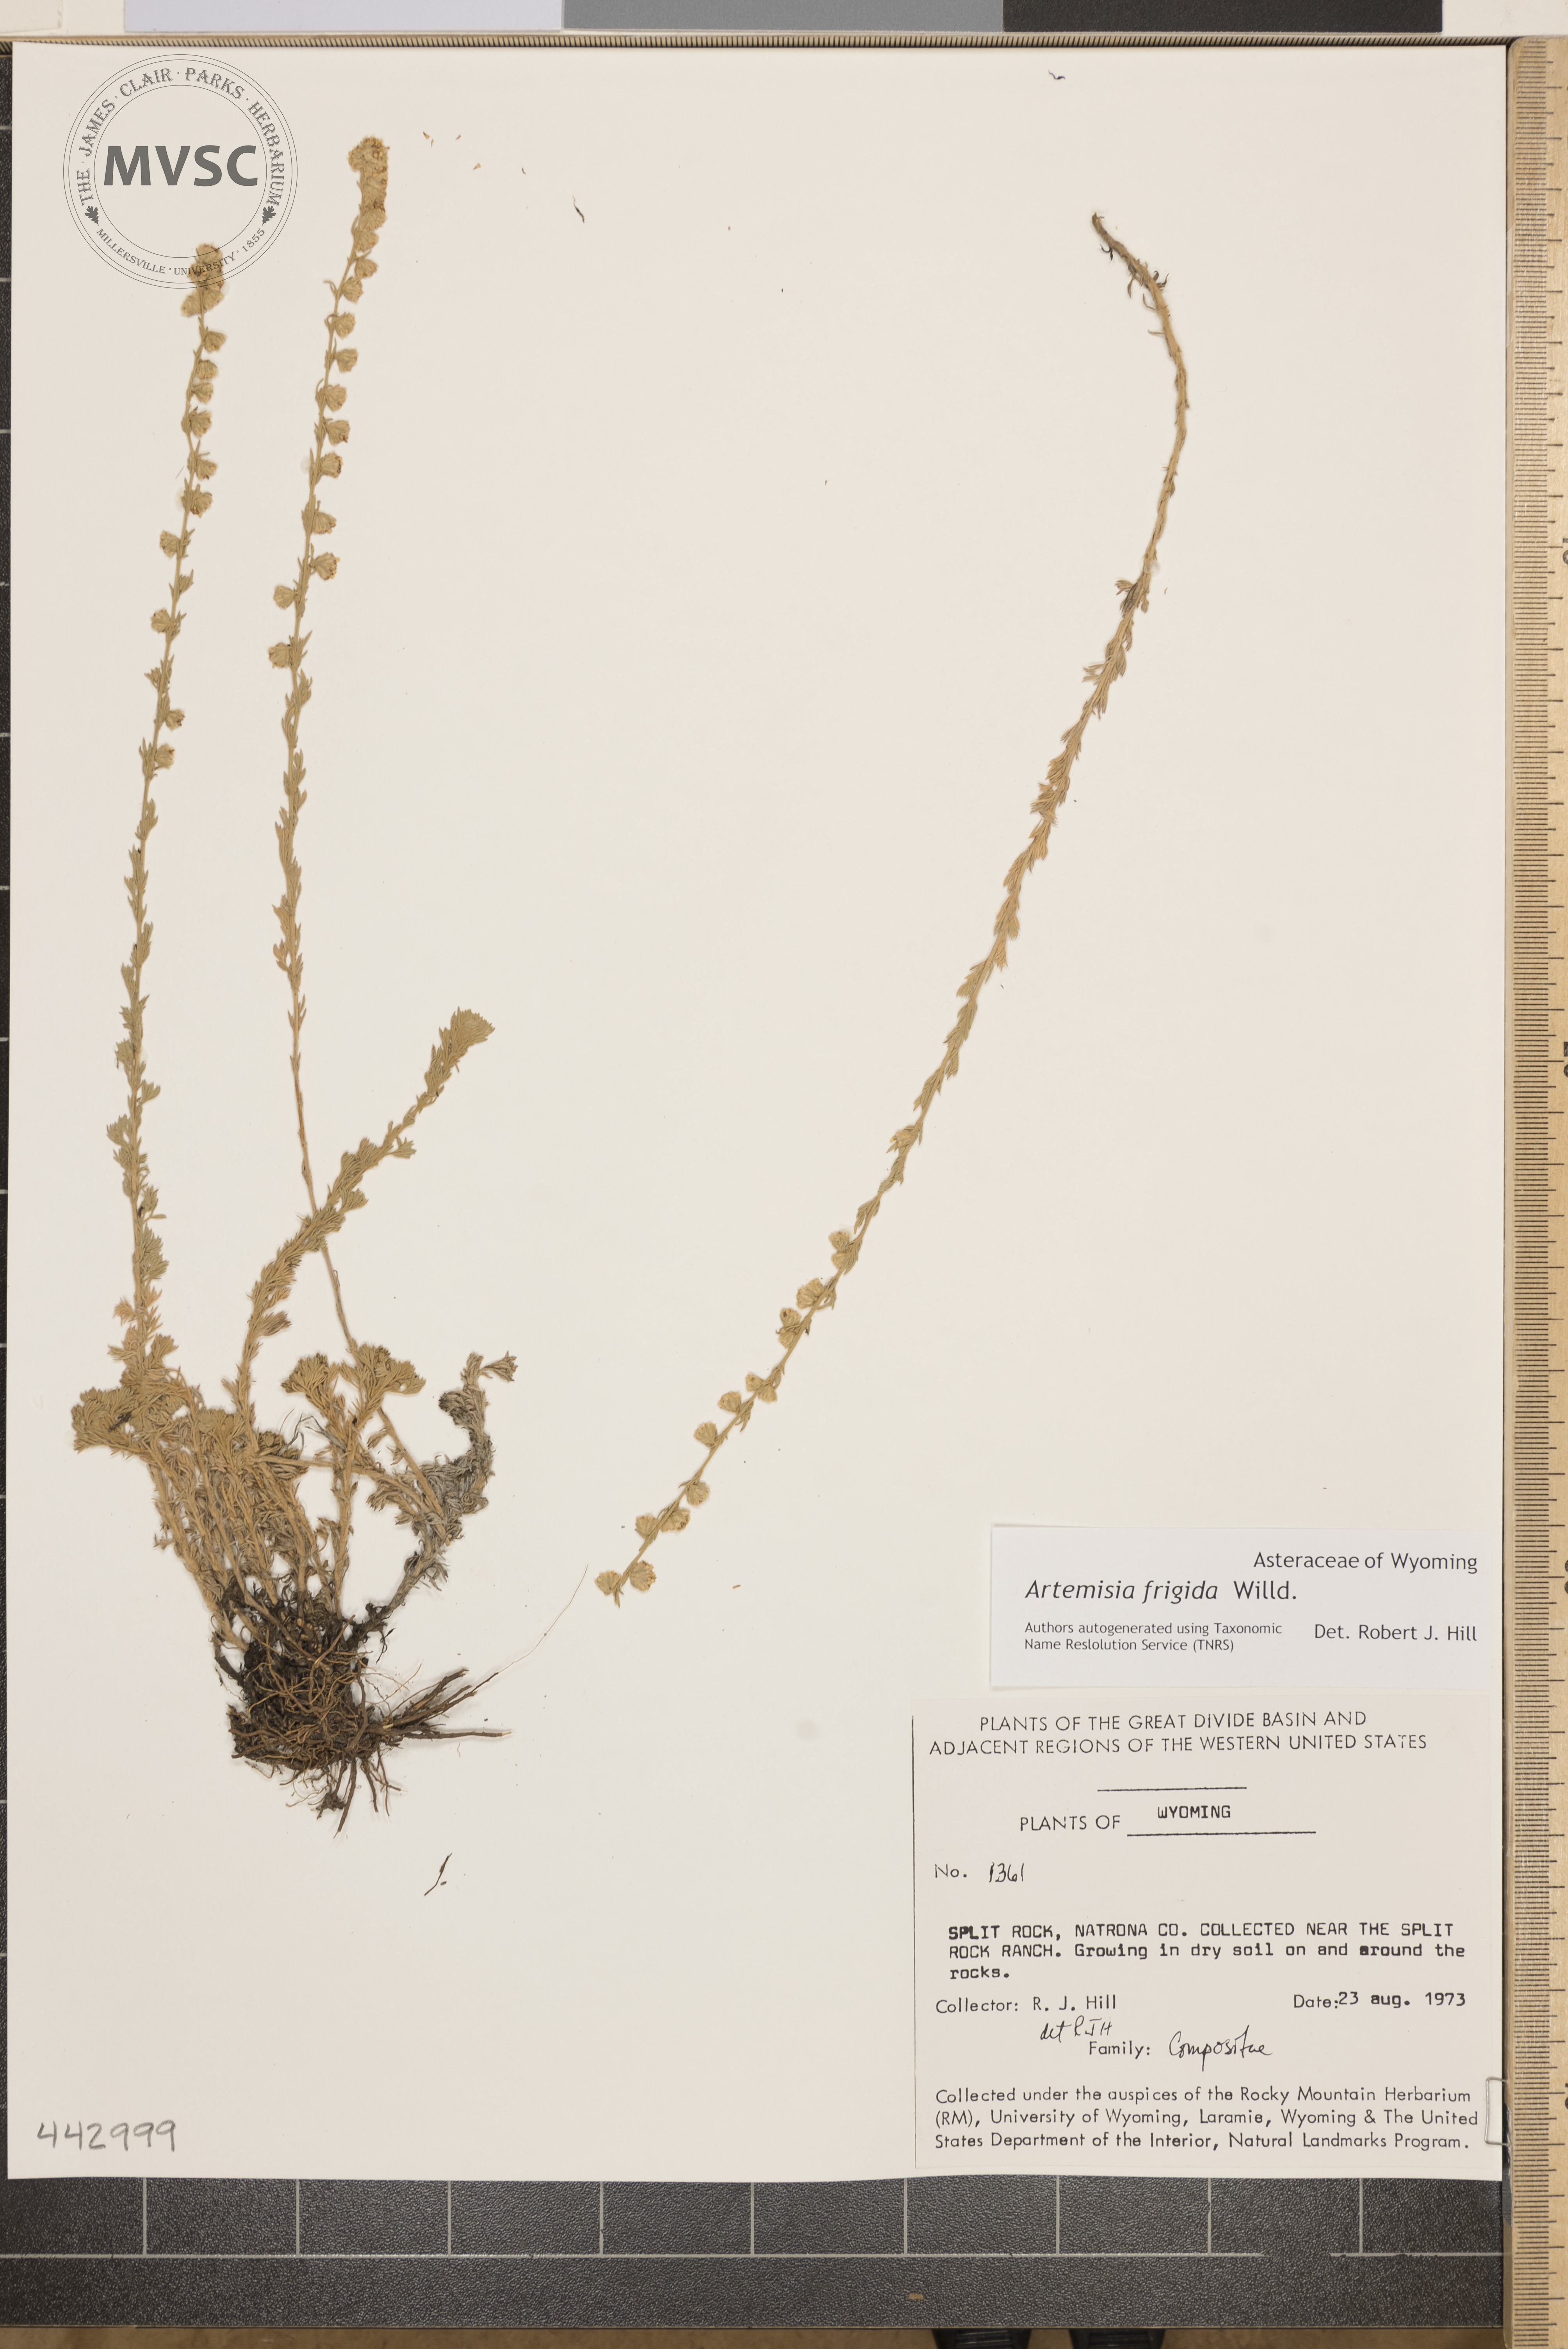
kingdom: Plantae
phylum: Tracheophyta
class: Magnoliopsida
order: Asterales
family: Asteraceae
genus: Artemisia
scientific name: Artemisia frigida
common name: Prairie sagewort
